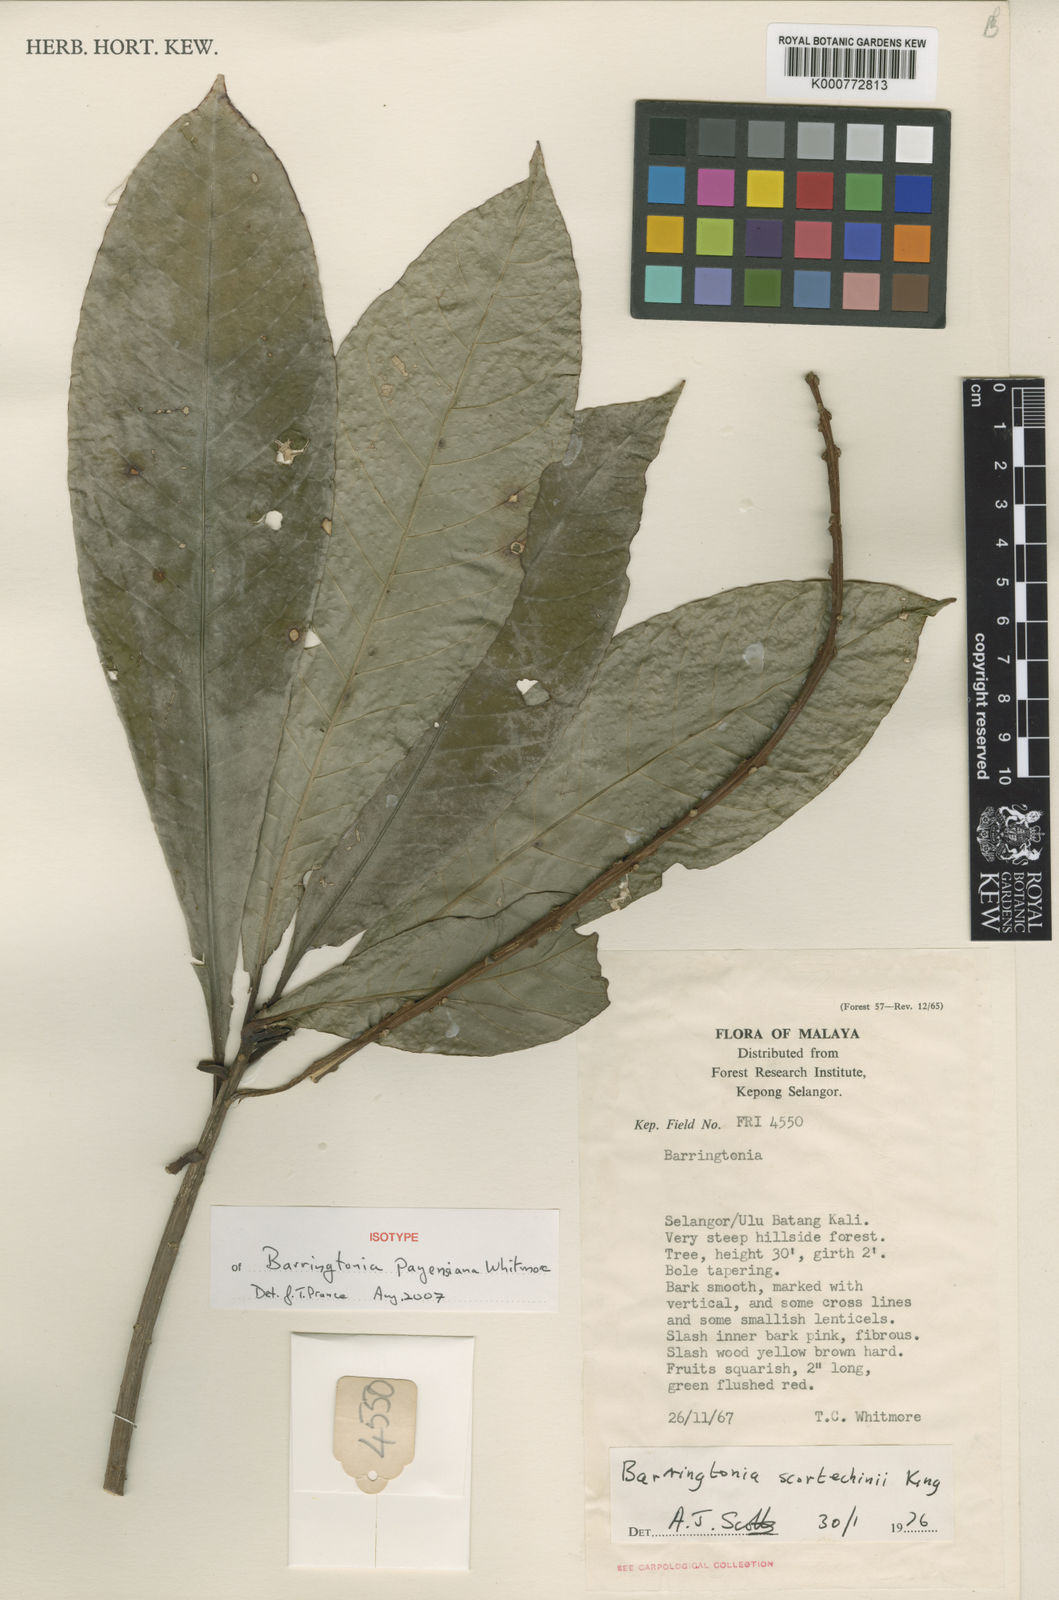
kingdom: Plantae
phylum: Tracheophyta
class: Magnoliopsida
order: Ericales
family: Lecythidaceae
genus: Barringtonia
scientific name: Barringtonia payensiana
